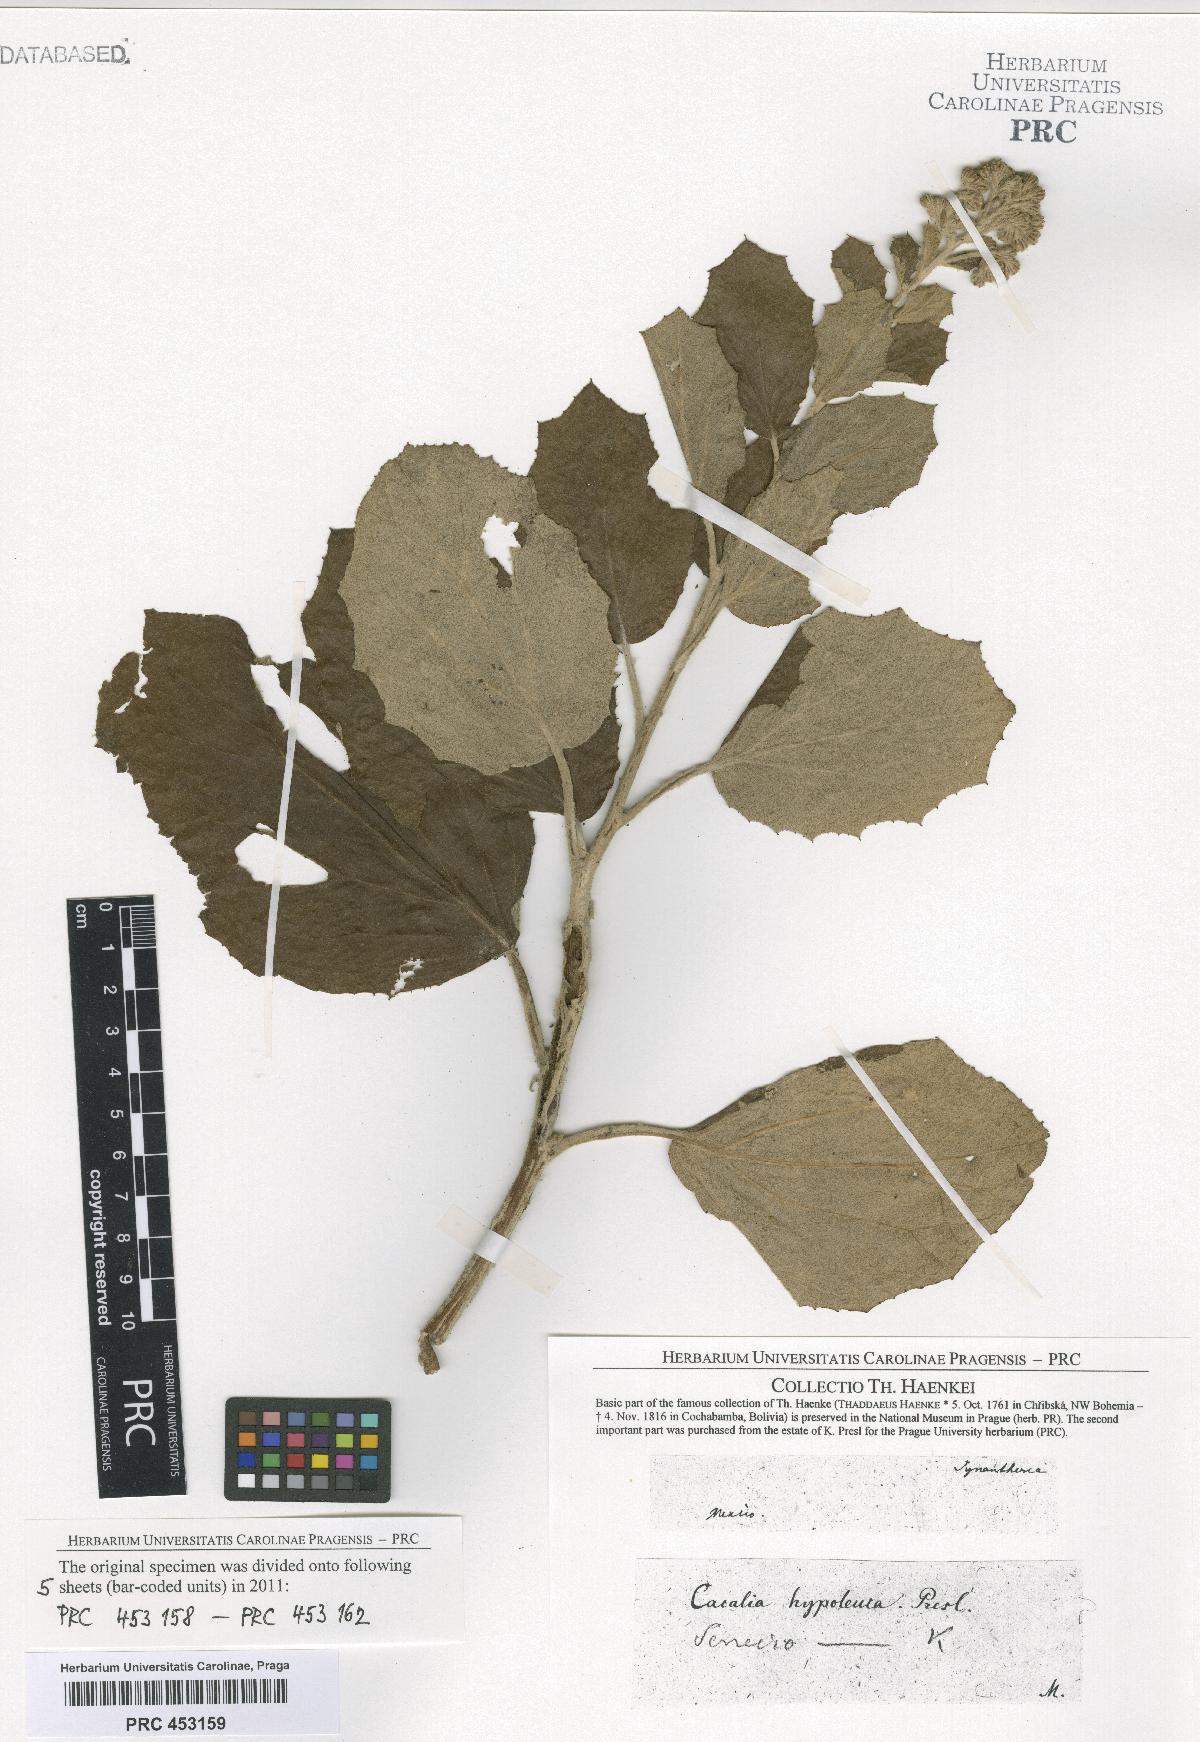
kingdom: Plantae
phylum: Tracheophyta
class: Magnoliopsida
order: Asterales
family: Asteraceae
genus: Senecio
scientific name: Senecio
